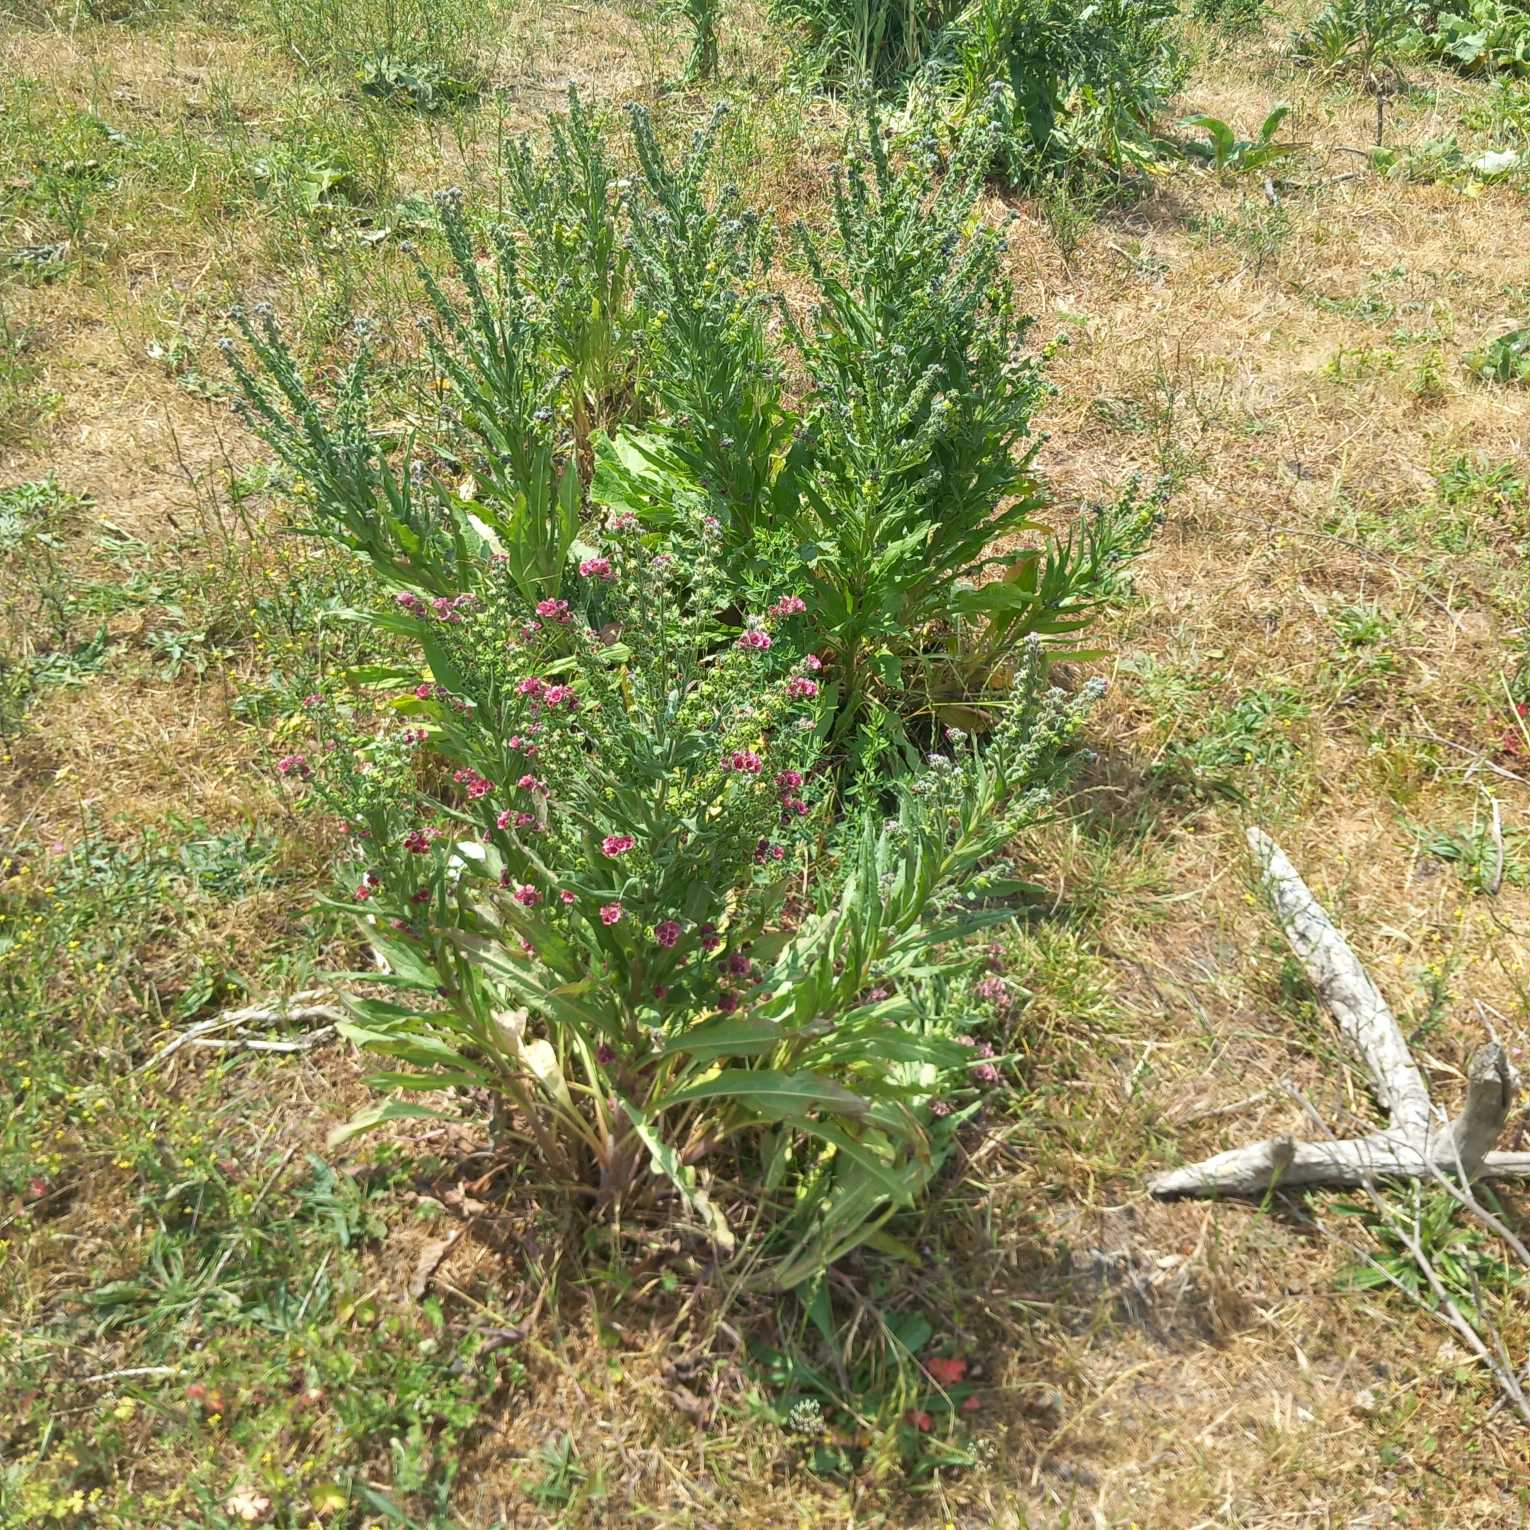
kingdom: Plantae
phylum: Tracheophyta
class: Magnoliopsida
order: Boraginales
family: Boraginaceae
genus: Cynoglossum
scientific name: Cynoglossum officinale
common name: Hundetunge
